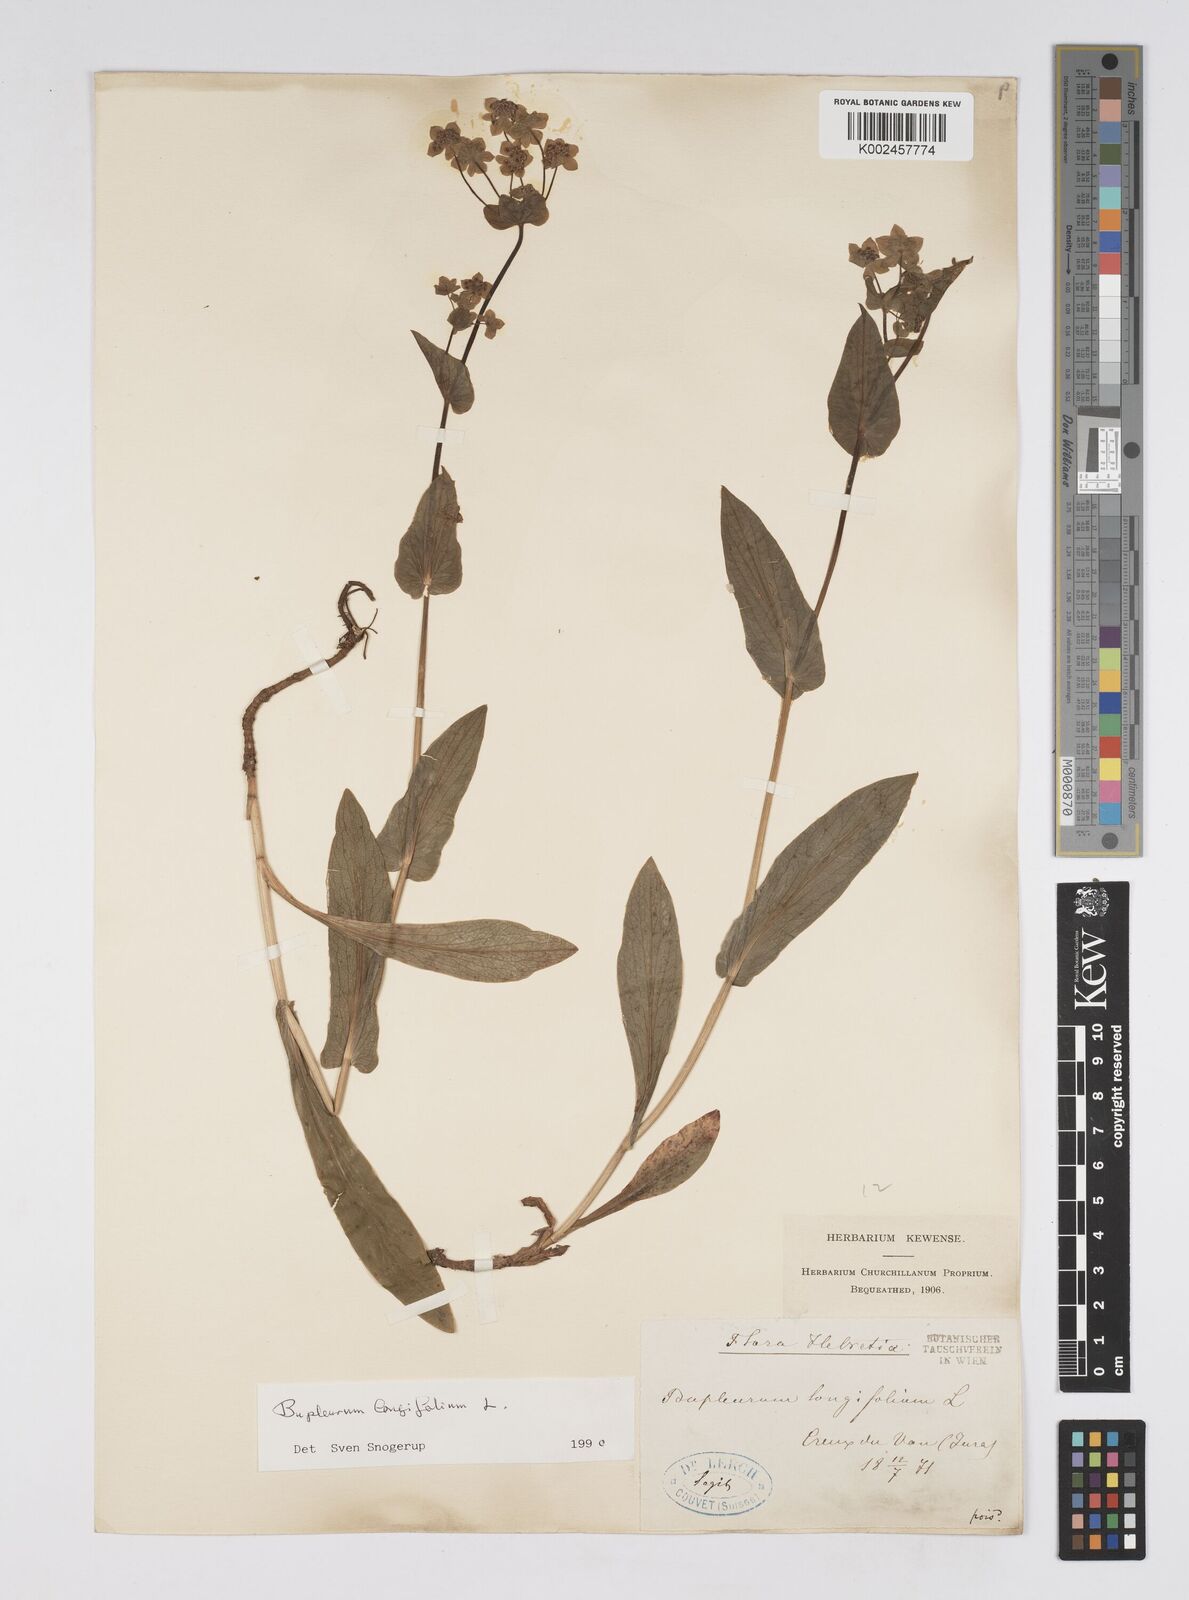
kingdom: Plantae
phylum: Tracheophyta
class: Magnoliopsida
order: Apiales
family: Apiaceae
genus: Bupleurum
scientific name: Bupleurum longifolium
